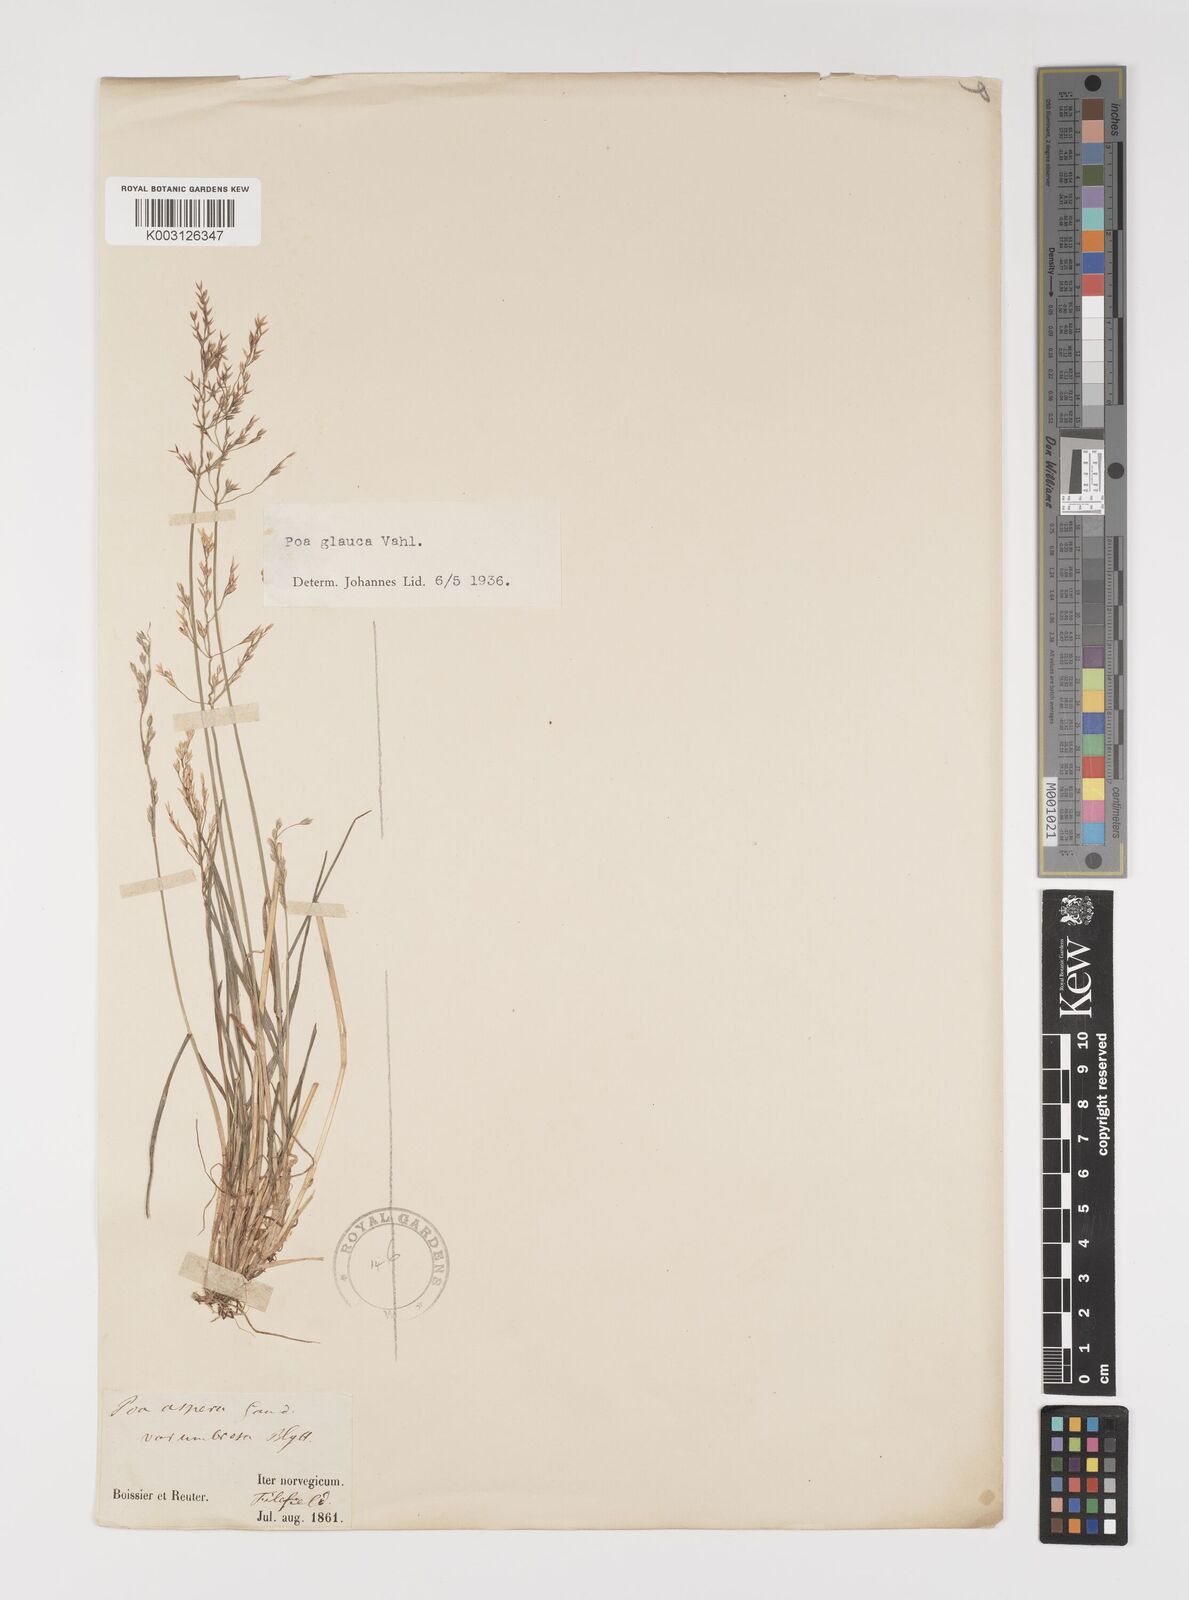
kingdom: Plantae
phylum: Tracheophyta
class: Liliopsida
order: Poales
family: Poaceae
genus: Poa
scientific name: Poa glauca
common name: Glaucous bluegrass
